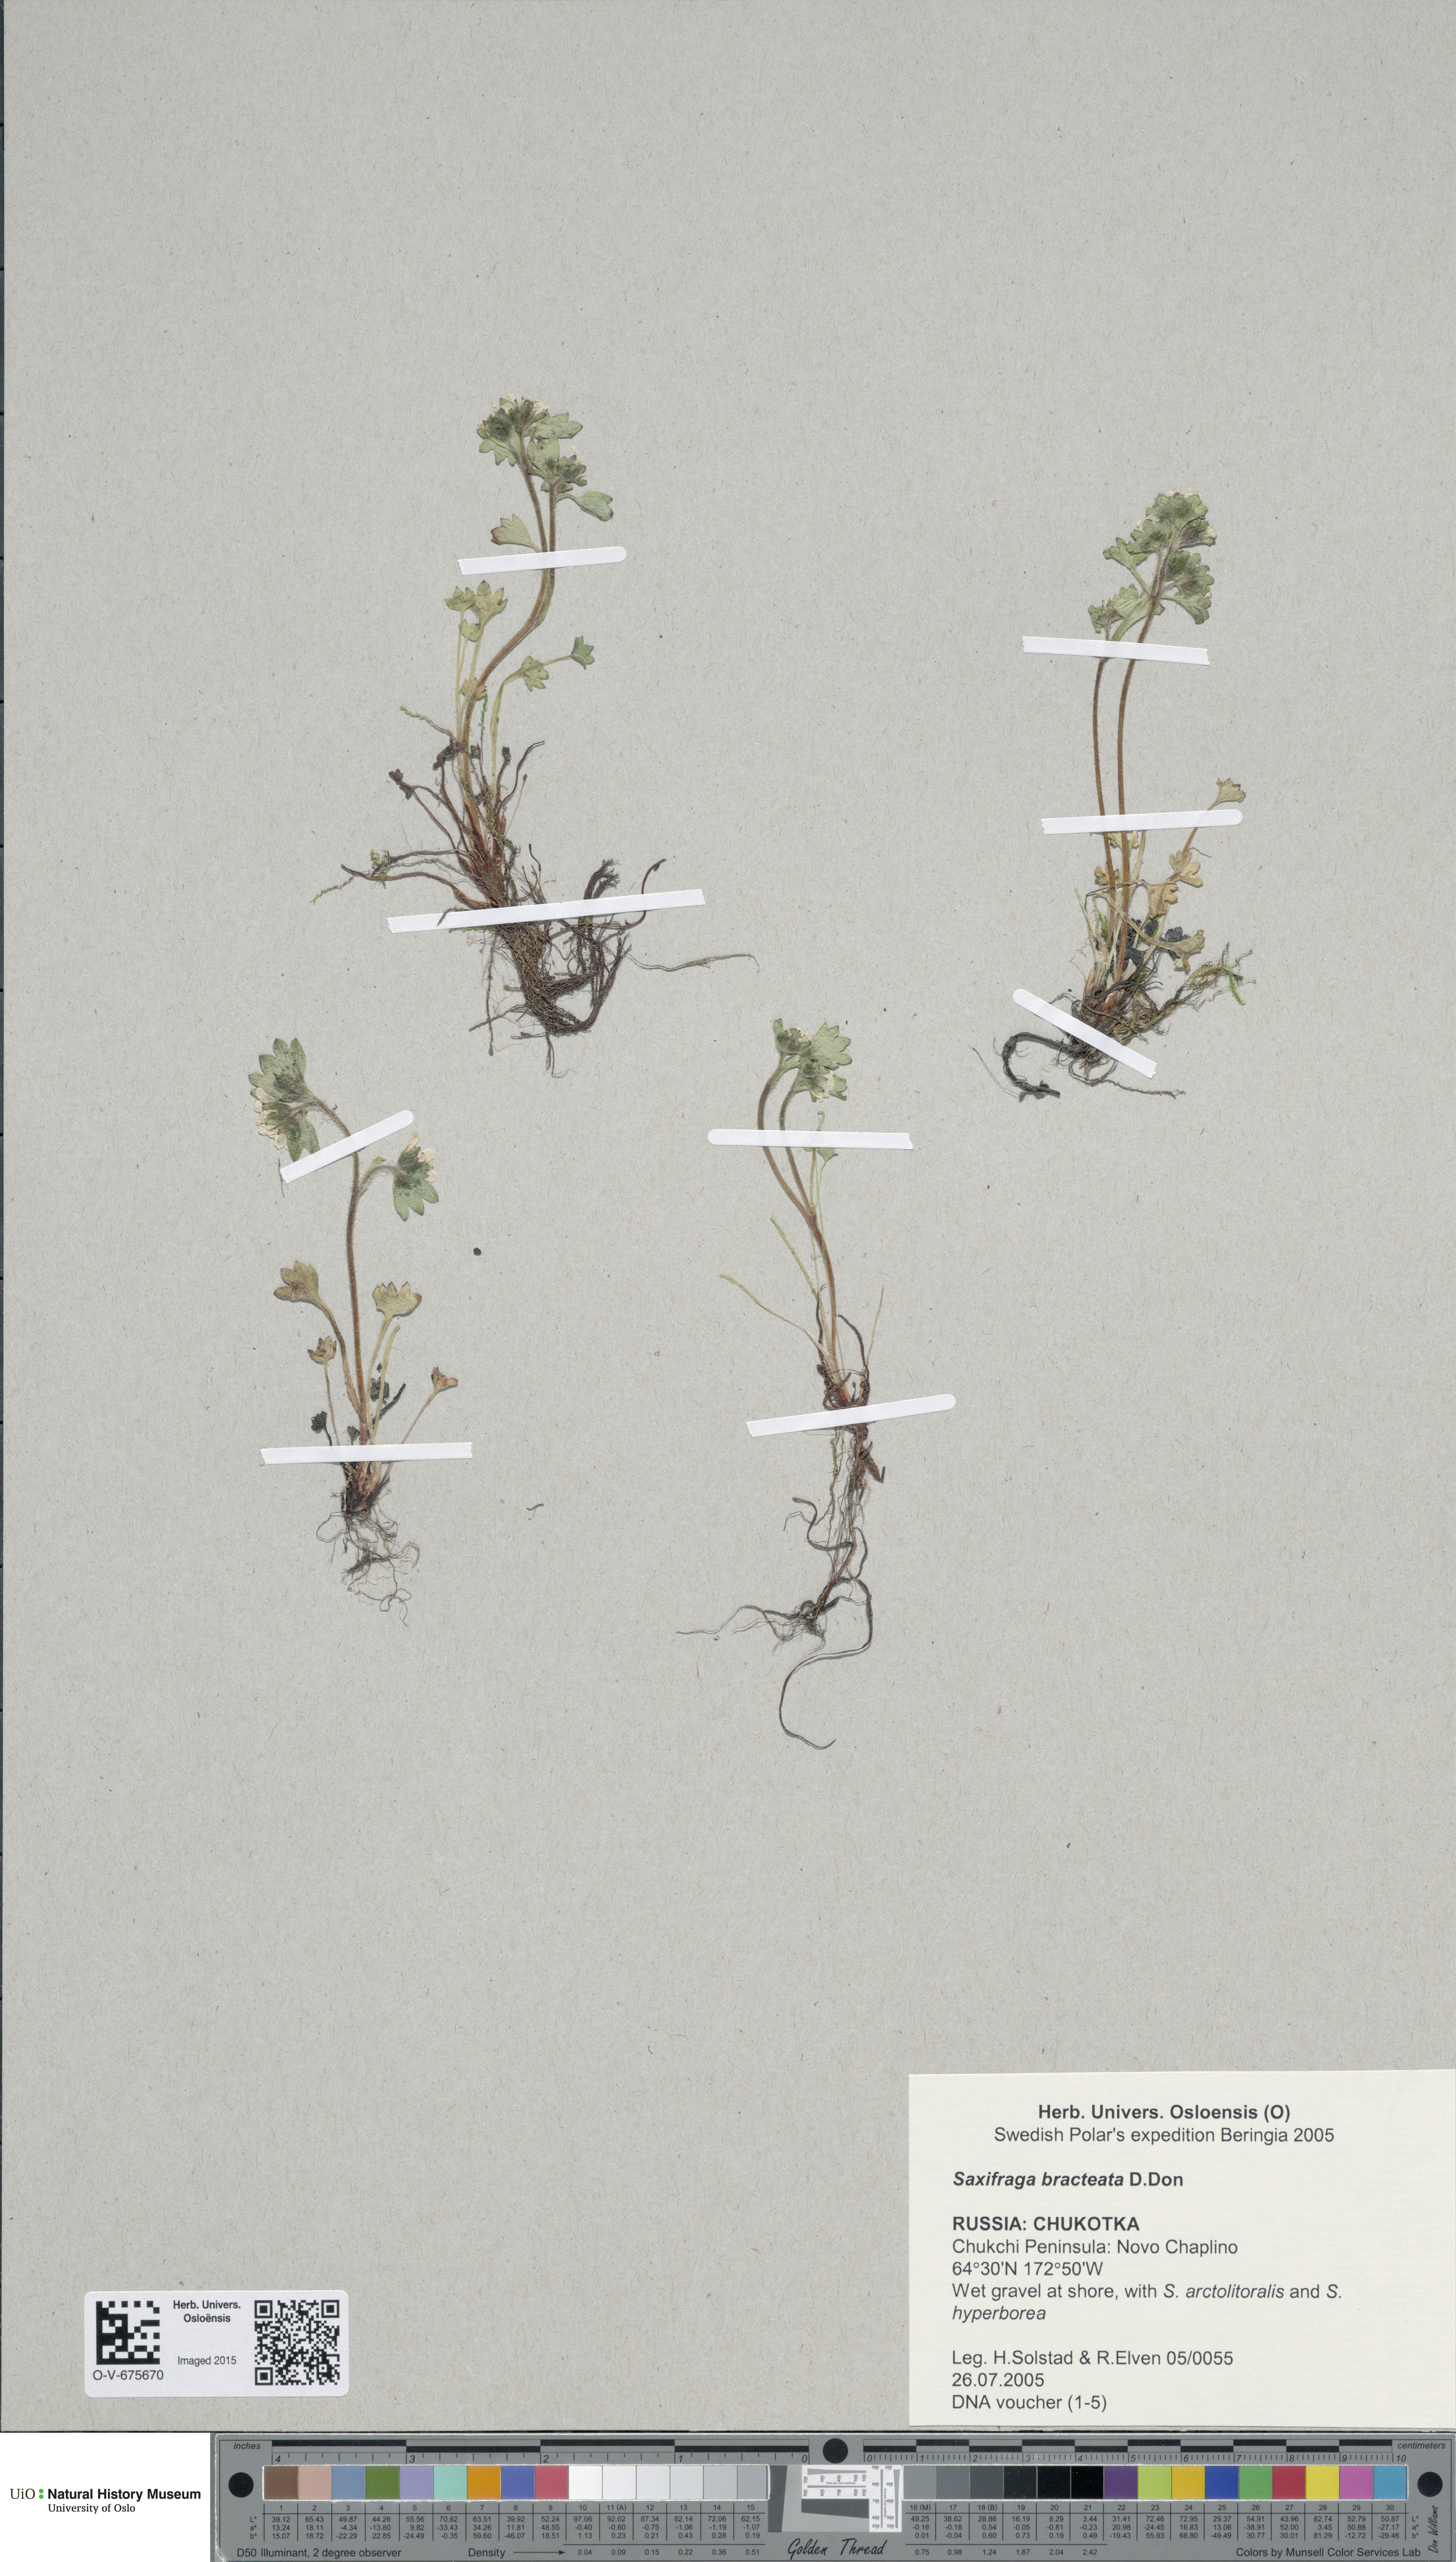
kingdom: Plantae
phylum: Tracheophyta
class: Magnoliopsida
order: Saxifragales
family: Saxifragaceae
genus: Saxifraga
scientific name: Saxifraga bracteata
